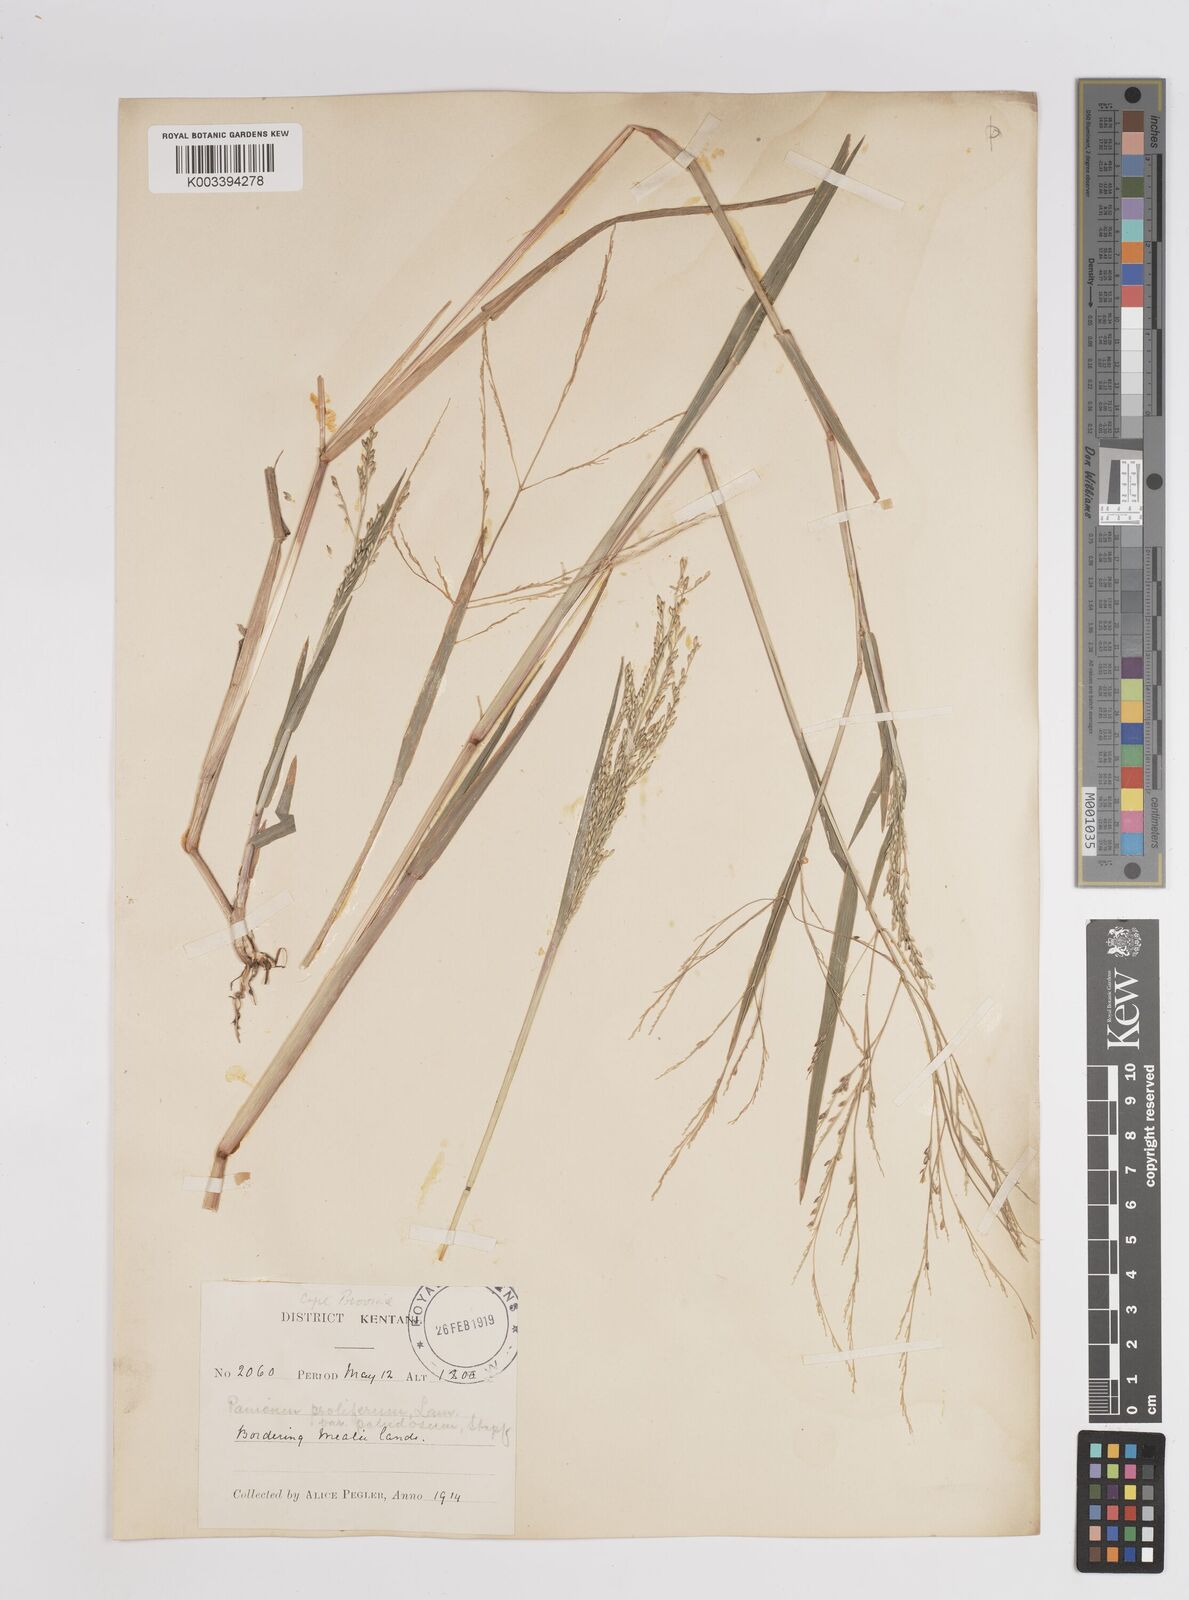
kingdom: Plantae
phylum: Tracheophyta
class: Liliopsida
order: Poales
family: Poaceae
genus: Panicum
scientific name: Panicum subalbidum
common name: Elbow buffalo grass
